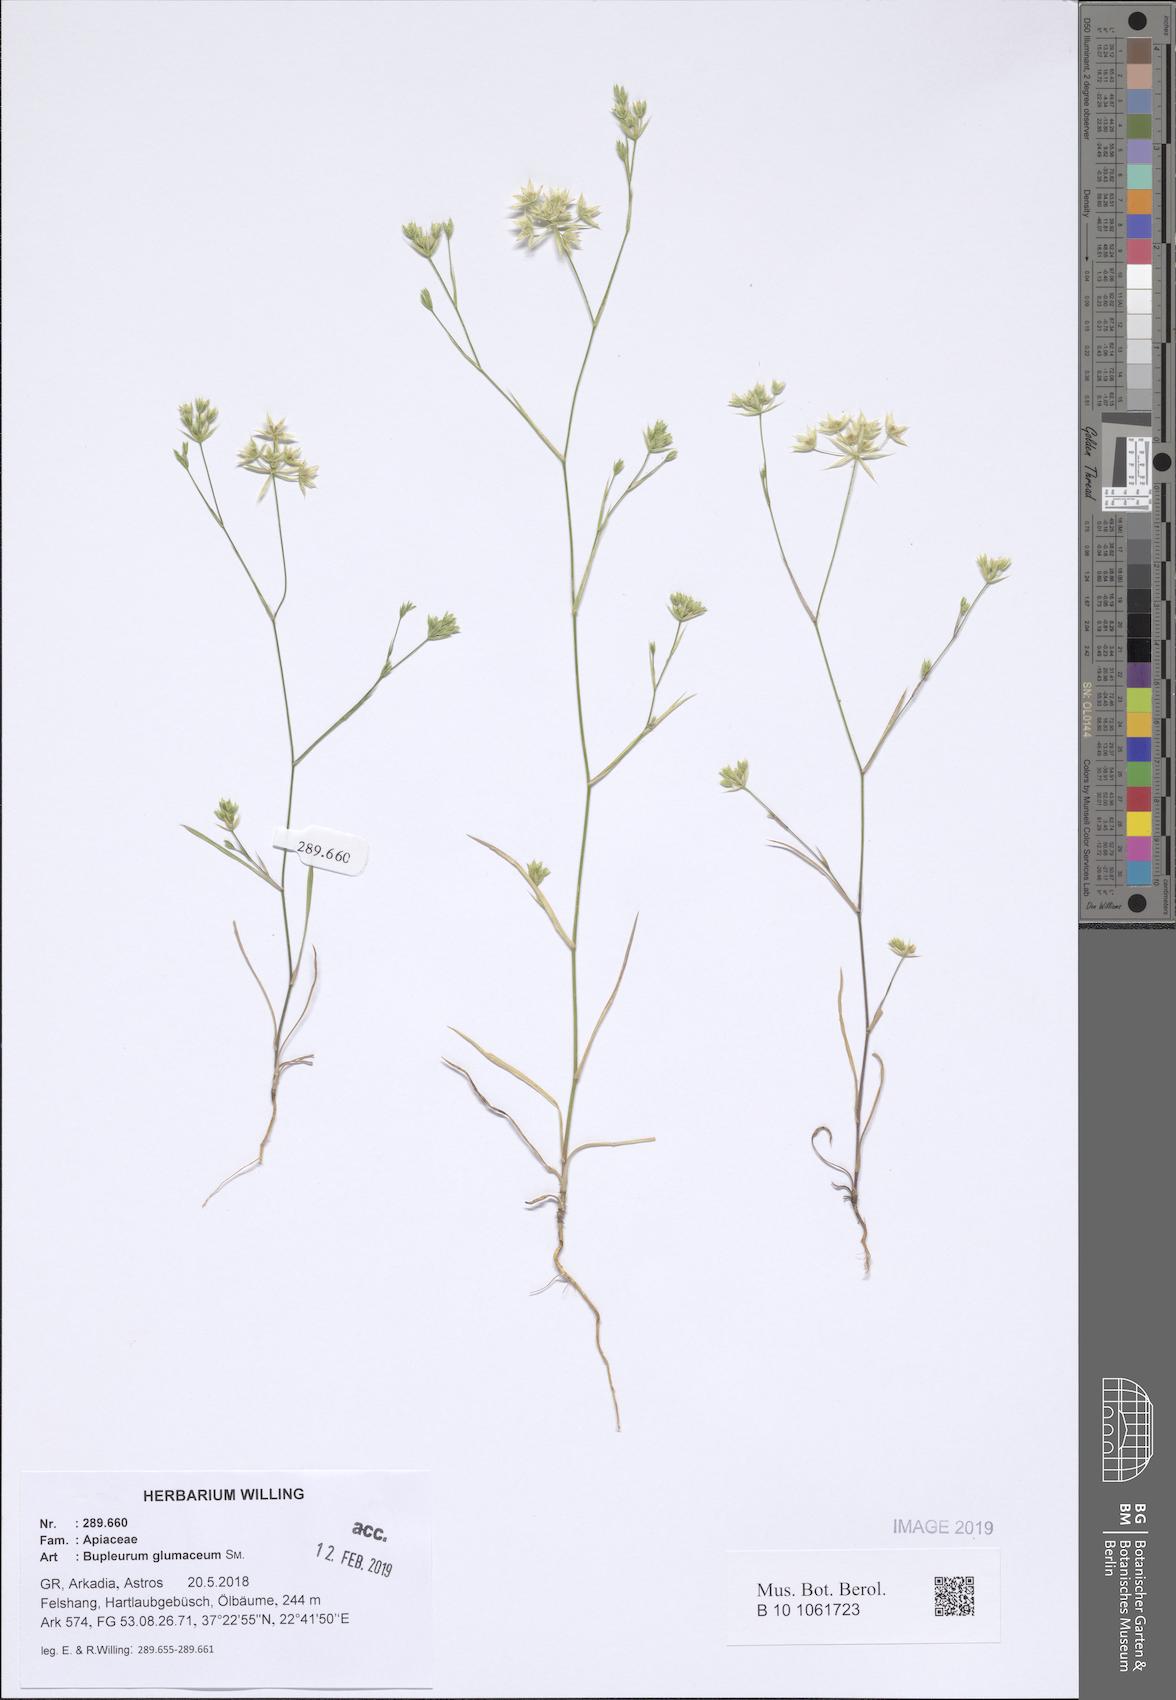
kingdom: Plantae
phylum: Tracheophyta
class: Magnoliopsida
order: Apiales
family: Apiaceae
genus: Bupleurum
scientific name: Bupleurum glumaceum
